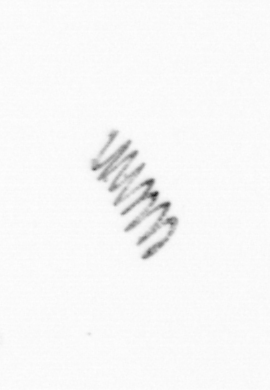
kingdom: Chromista
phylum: Ochrophyta
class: Bacillariophyceae
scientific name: Bacillariophyceae
